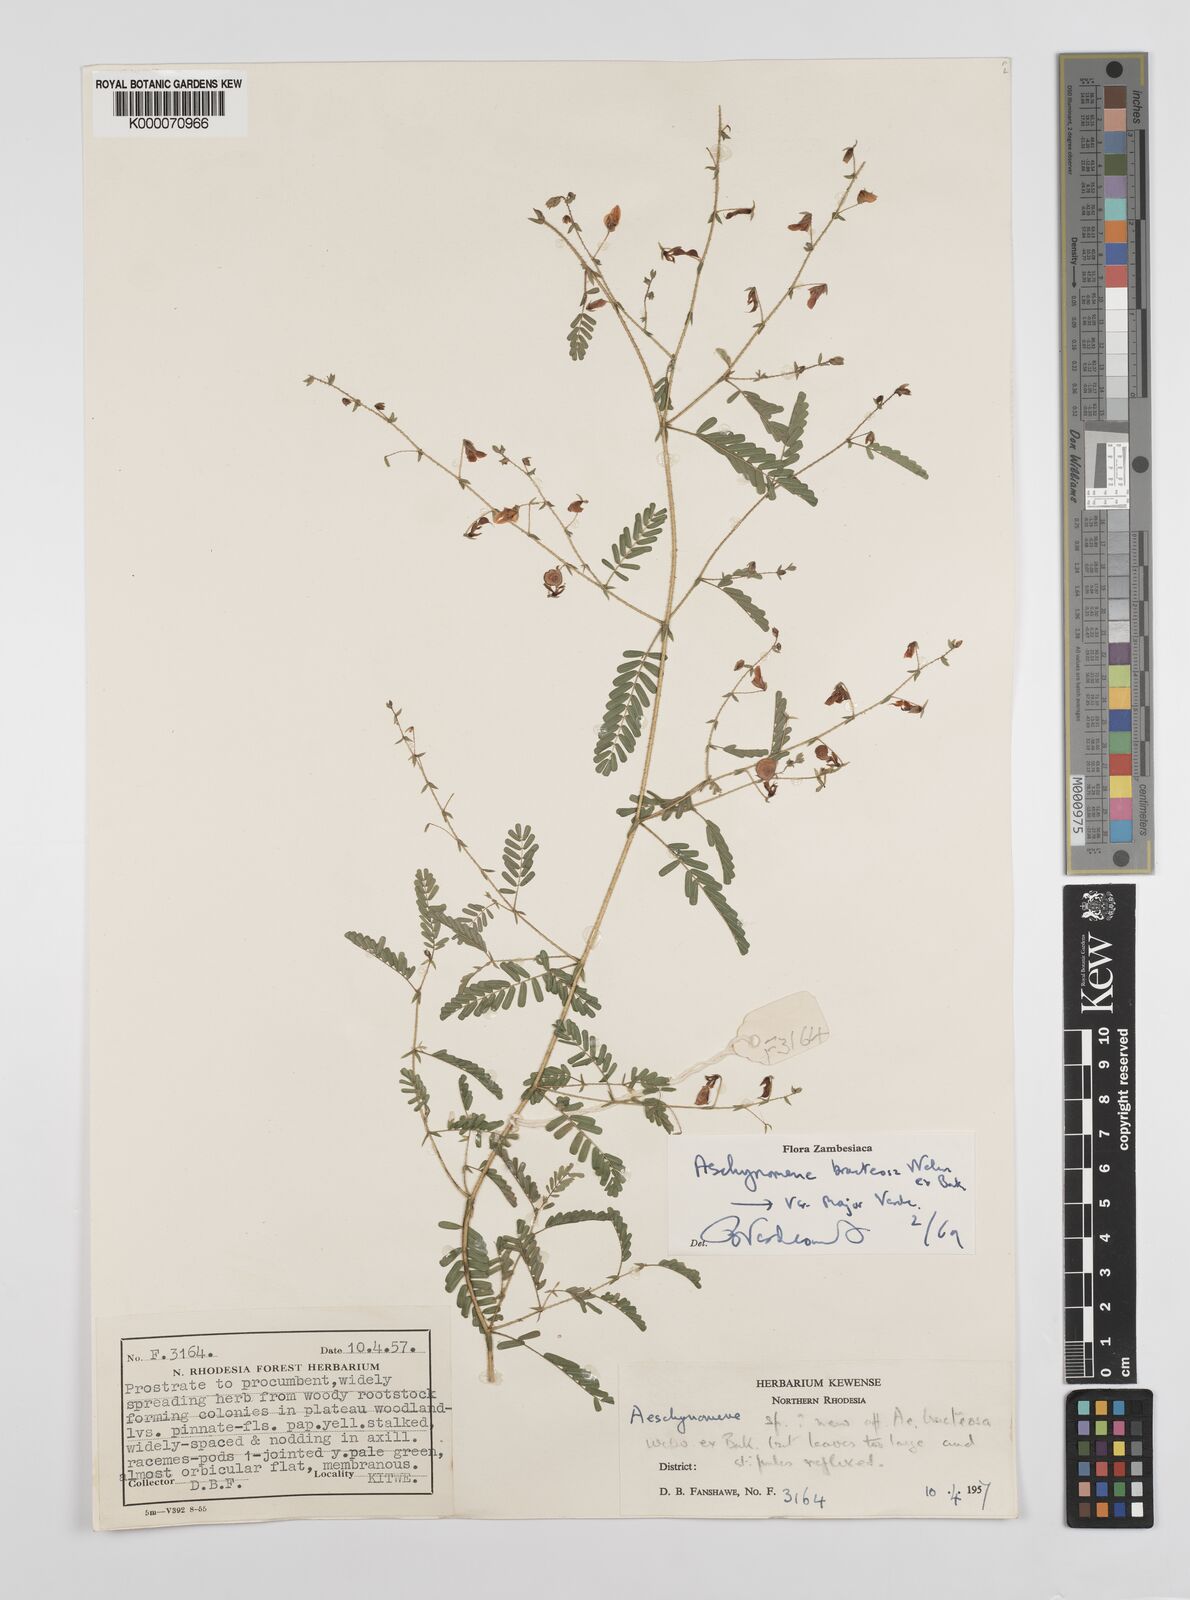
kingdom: Plantae
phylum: Tracheophyta
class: Magnoliopsida
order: Fabales
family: Fabaceae
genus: Aeschynomene
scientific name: Aeschynomene bracteosa
